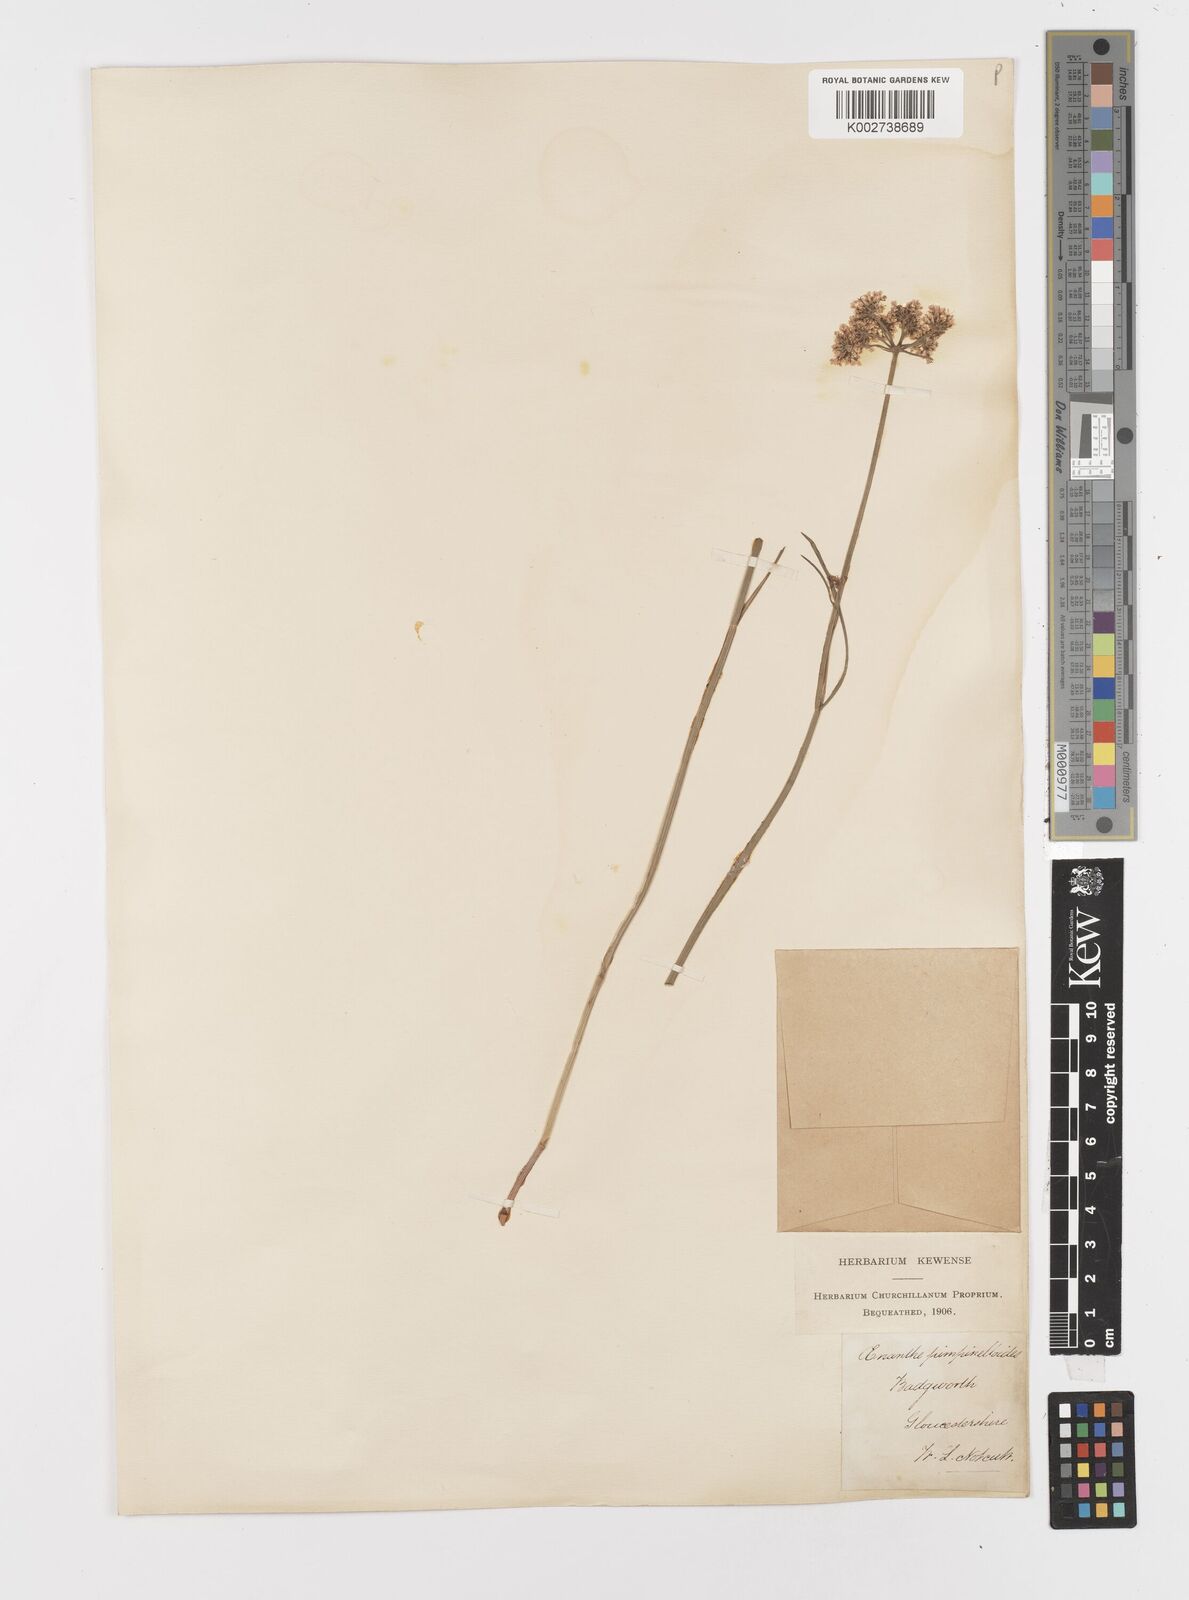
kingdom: Plantae
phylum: Tracheophyta
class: Magnoliopsida
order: Apiales
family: Apiaceae
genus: Oenanthe
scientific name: Oenanthe pimpinelloides
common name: Corky-fruited water-dropwort
